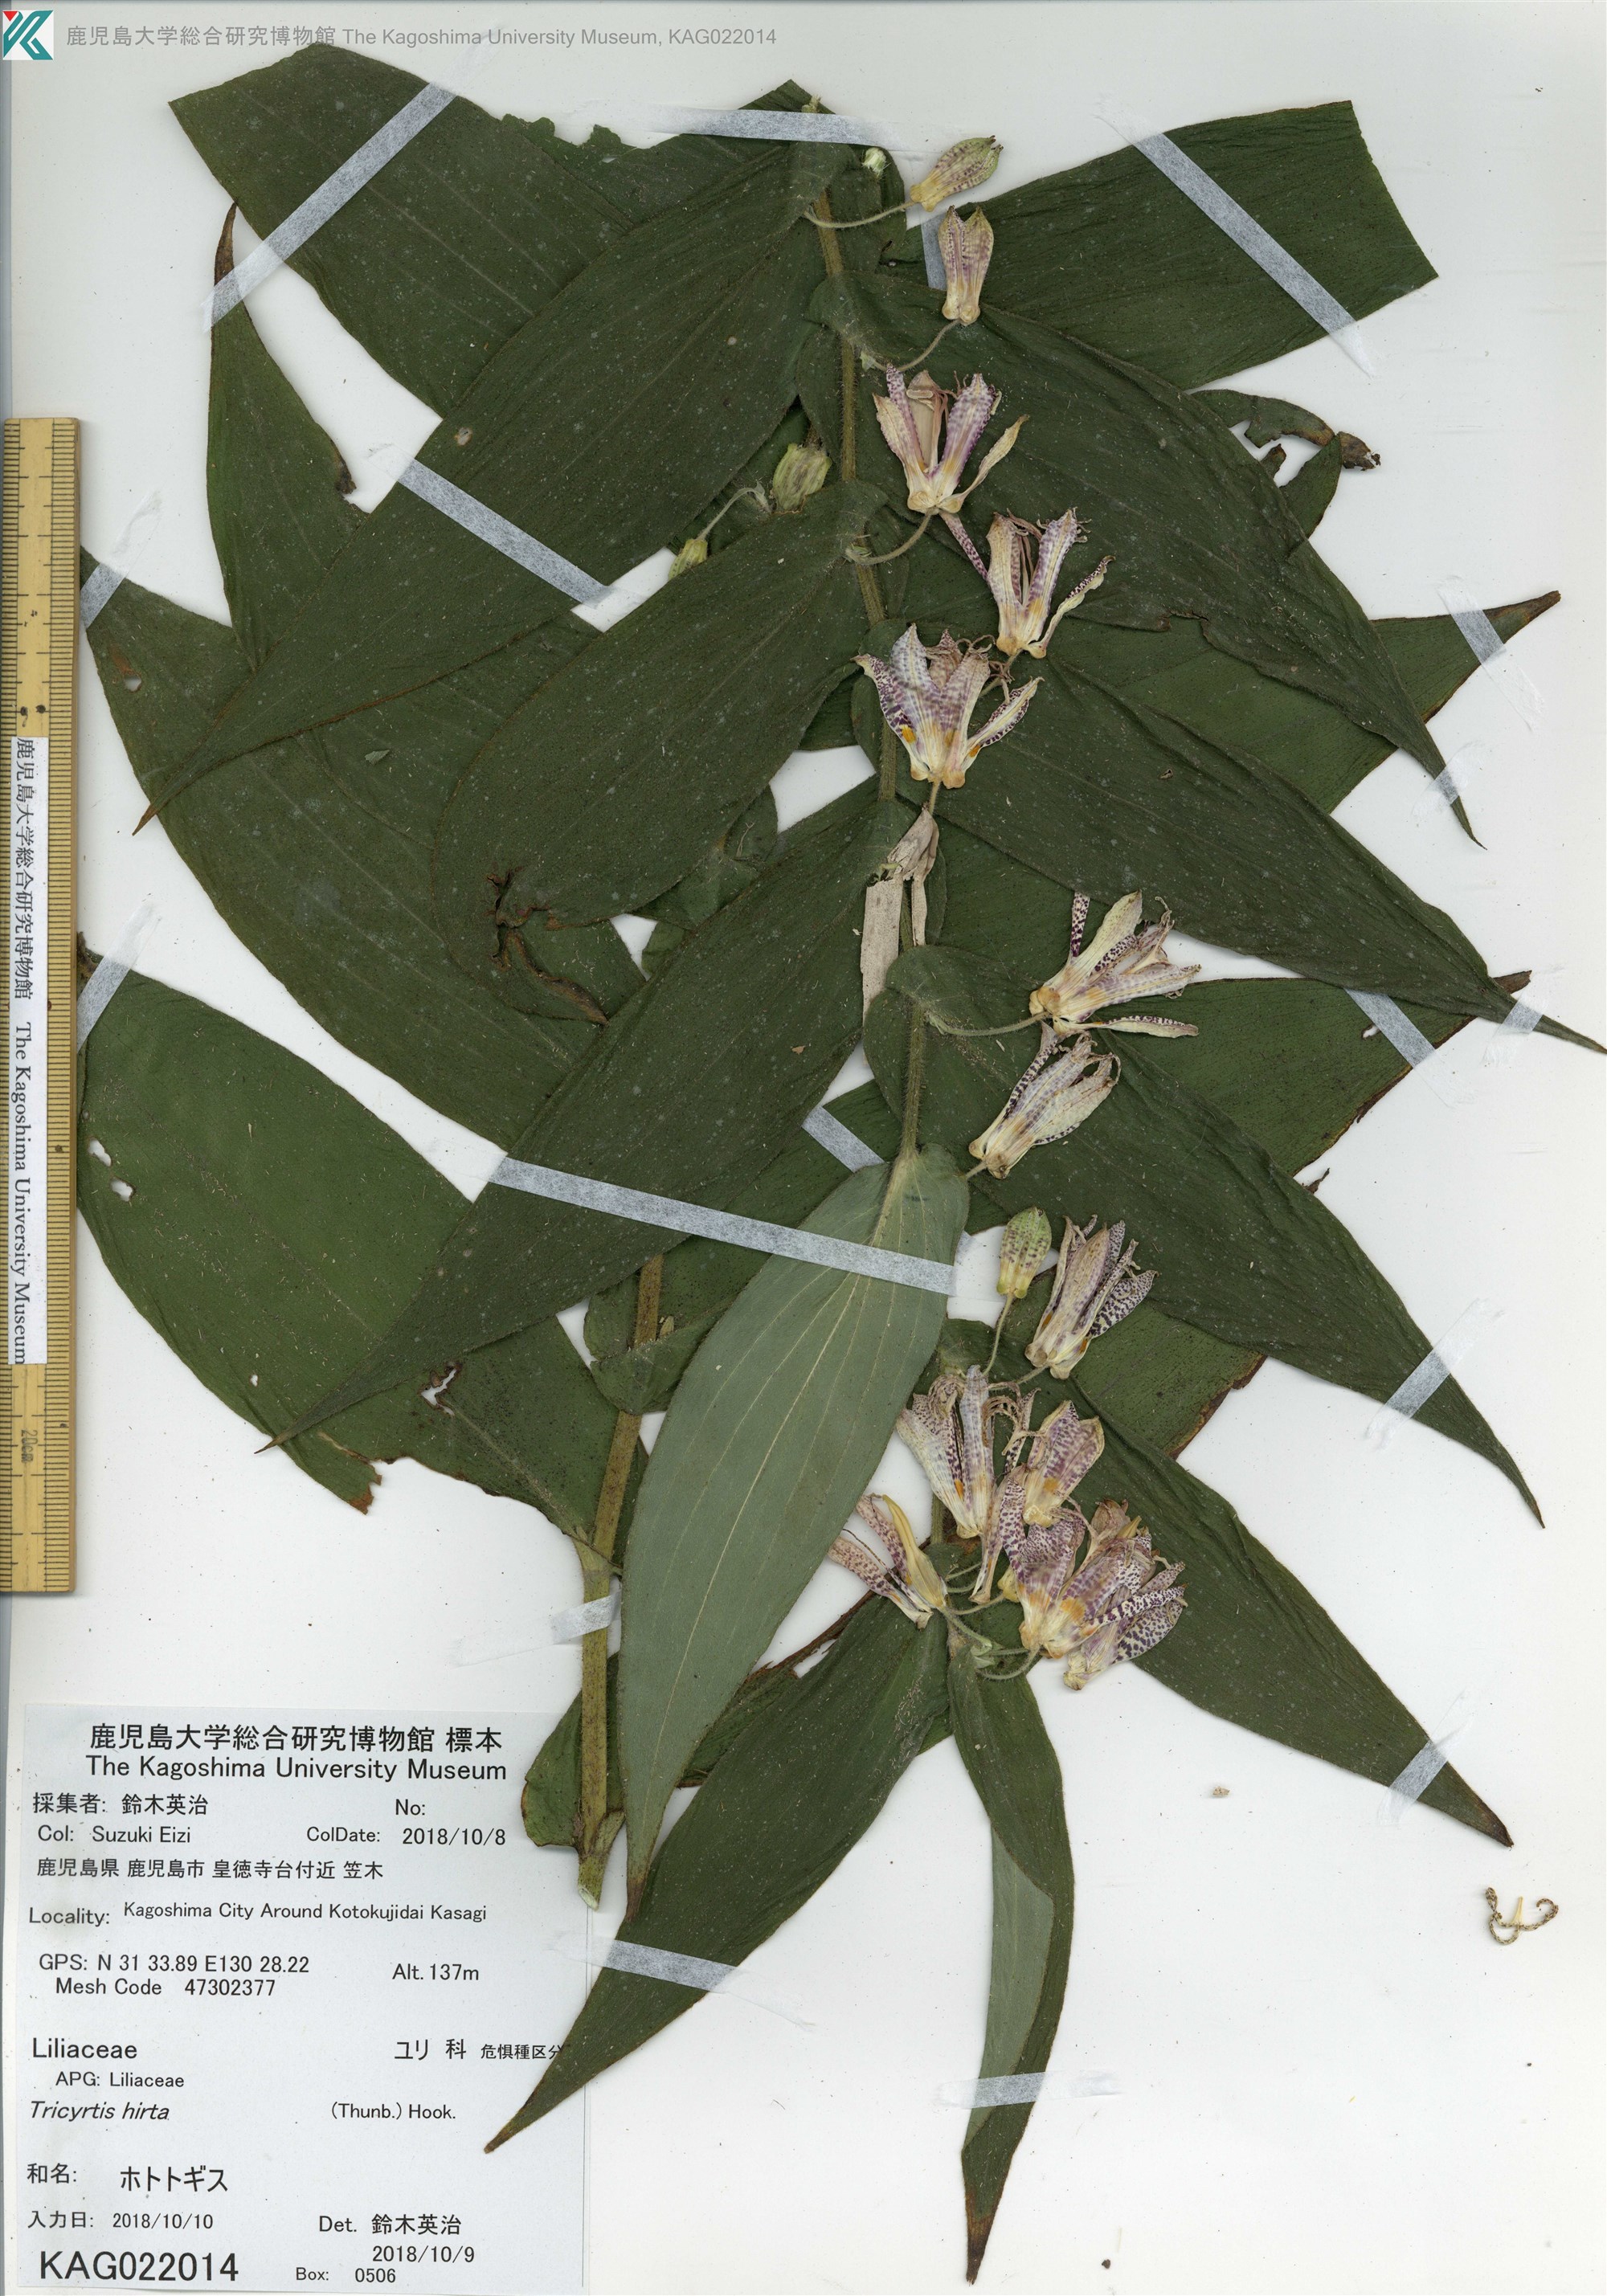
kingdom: Plantae
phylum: Tracheophyta
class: Liliopsida
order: Liliales
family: Liliaceae
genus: Tricyrtis
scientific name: Tricyrtis hirta
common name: ホトトギス
